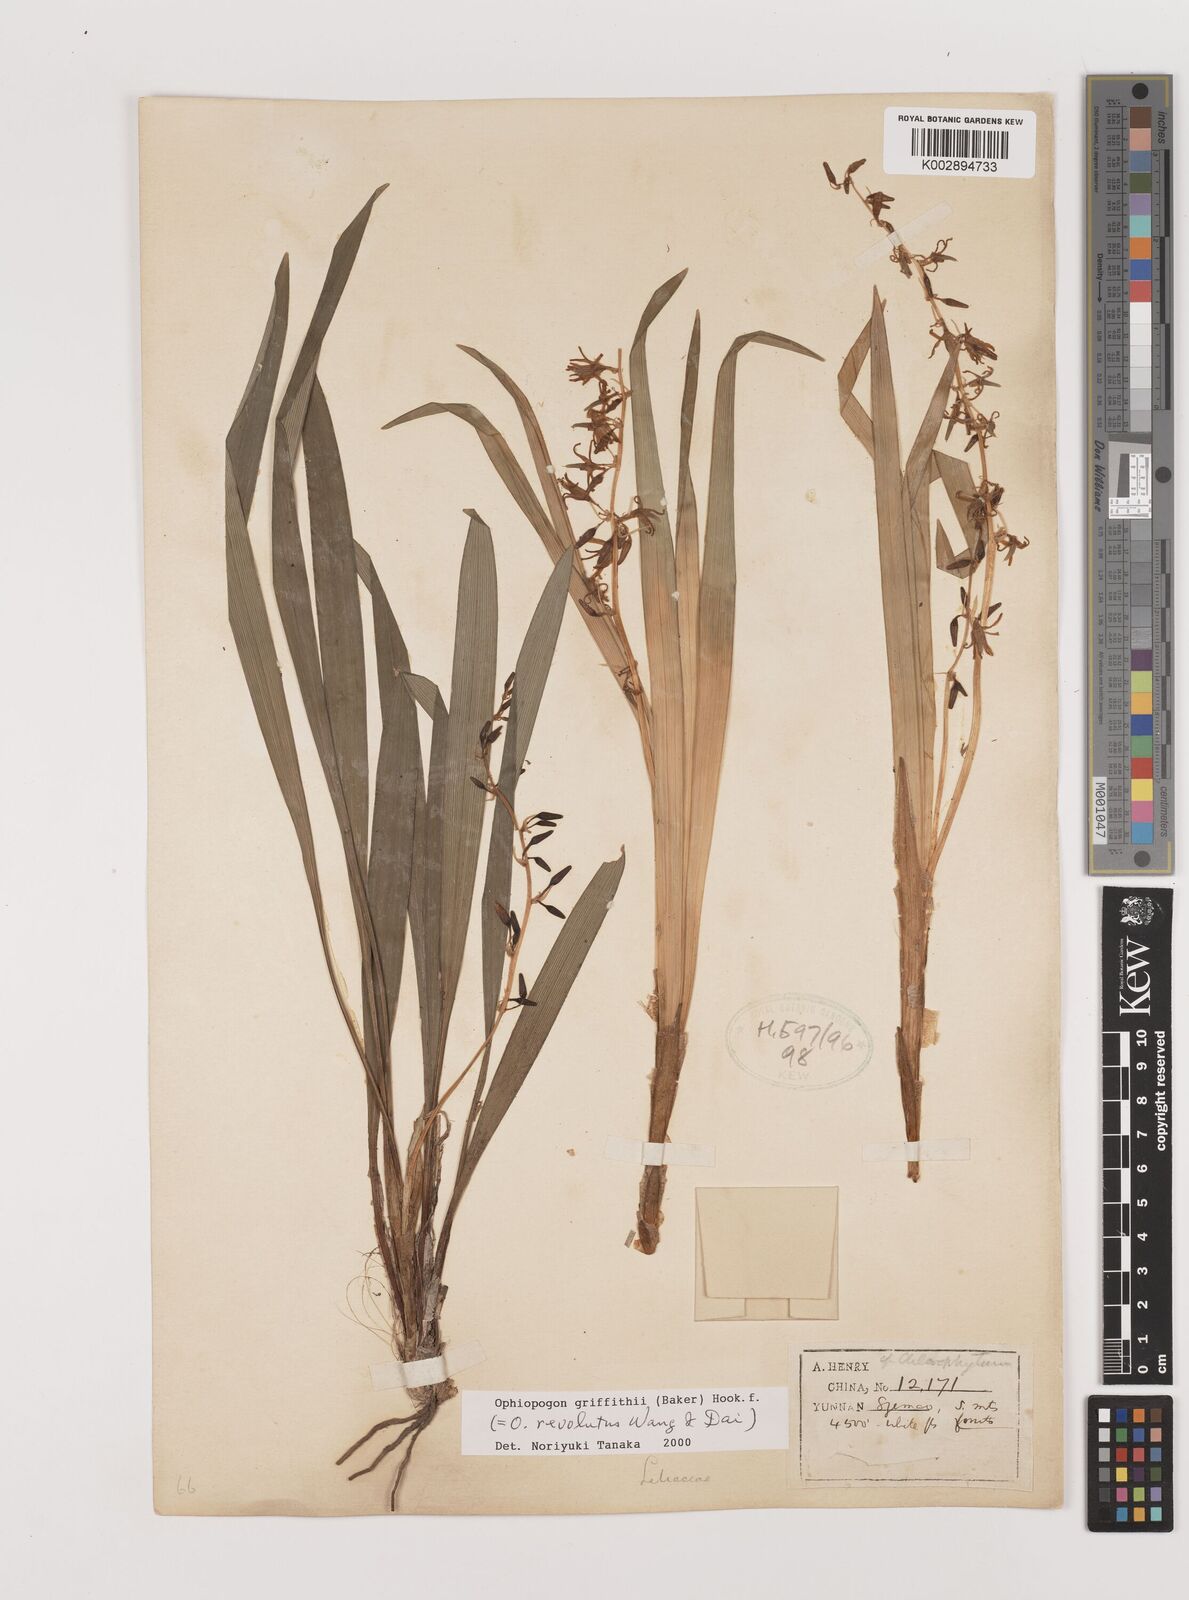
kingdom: Plantae
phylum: Tracheophyta
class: Liliopsida
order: Asparagales
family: Asparagaceae
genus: Ophiopogon
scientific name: Ophiopogon griffithii
